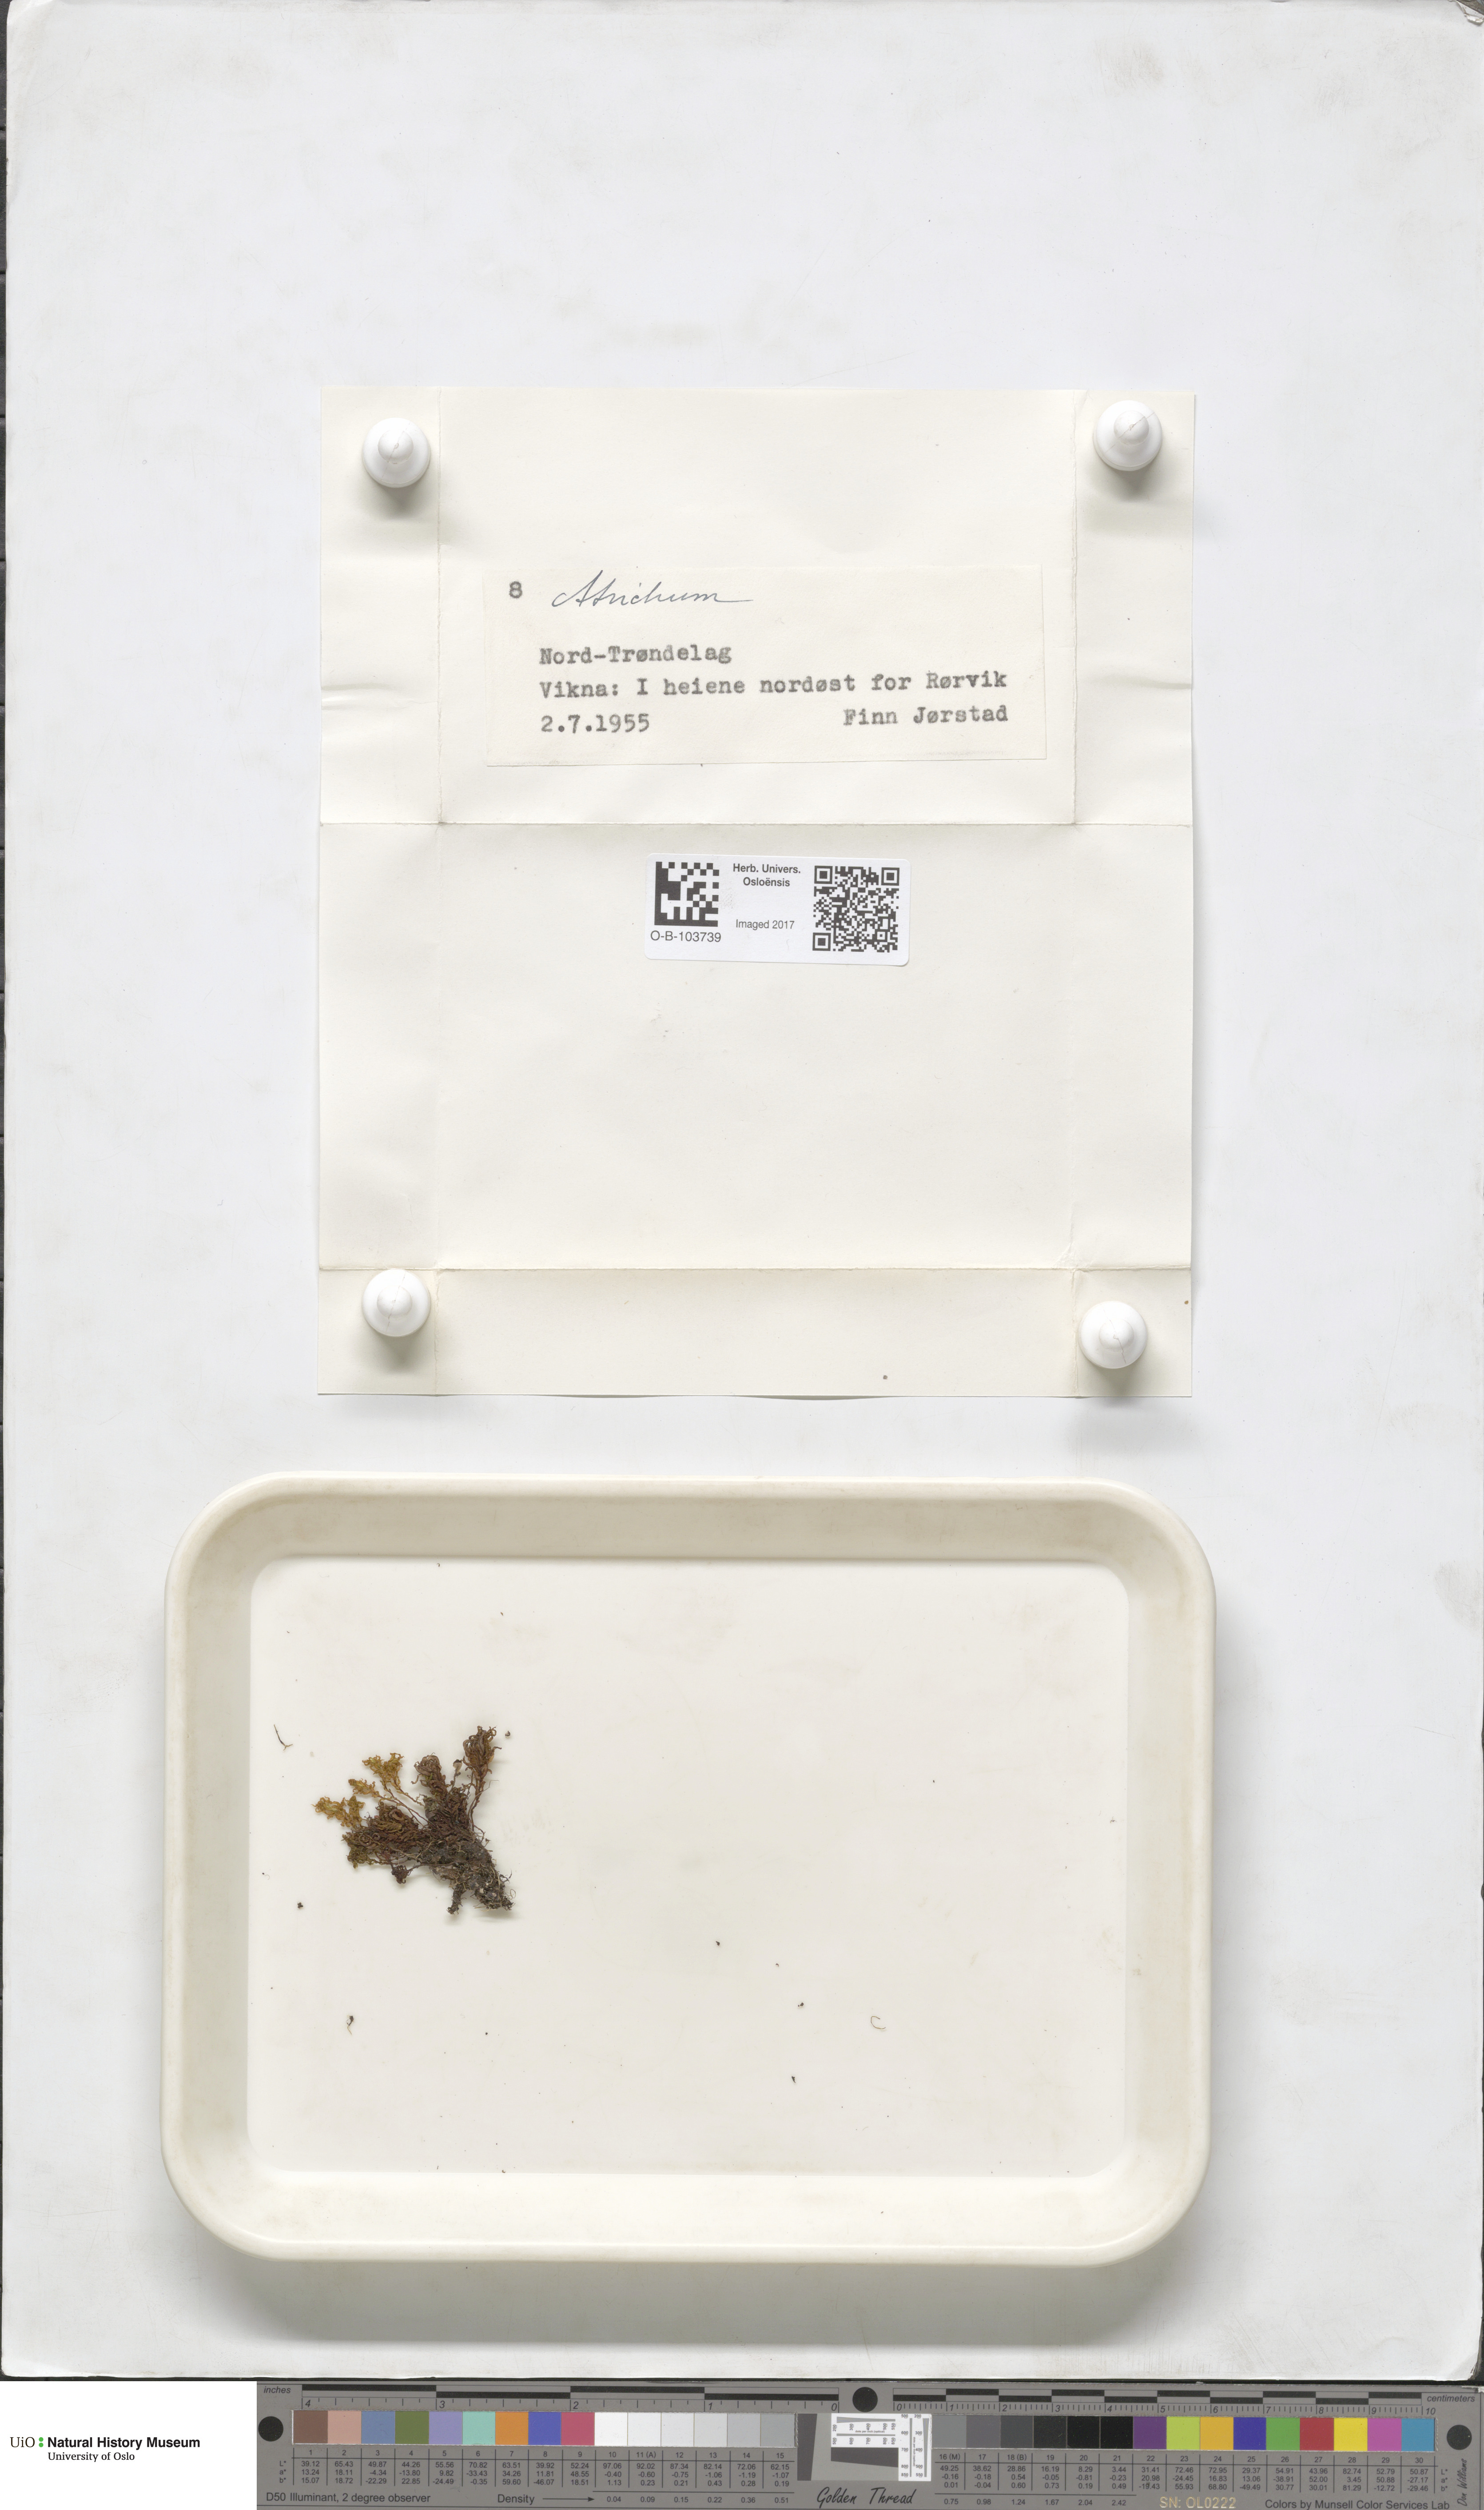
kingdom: Plantae
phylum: Bryophyta
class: Polytrichopsida
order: Polytrichales
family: Polytrichaceae
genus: Atrichum
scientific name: Atrichum
